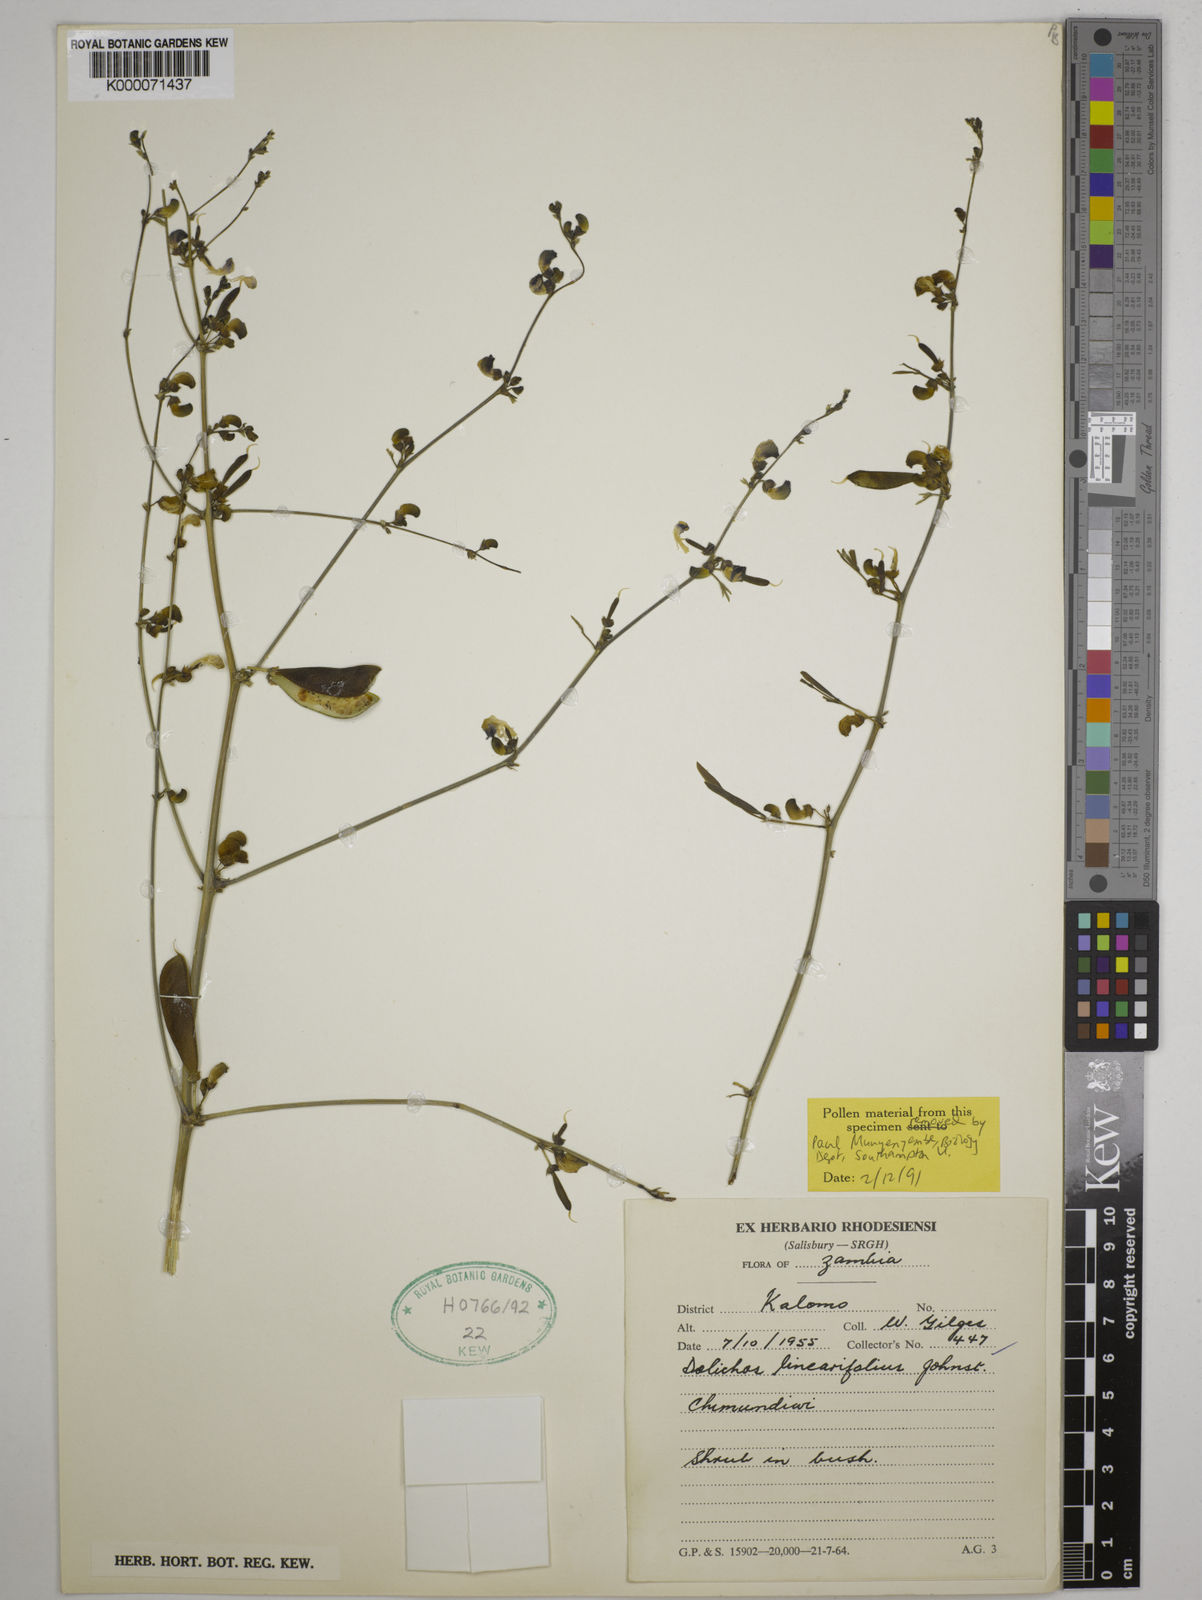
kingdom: Plantae
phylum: Tracheophyta
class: Magnoliopsida
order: Fabales
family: Fabaceae
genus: Dolichos
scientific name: Dolichos linearifolius
